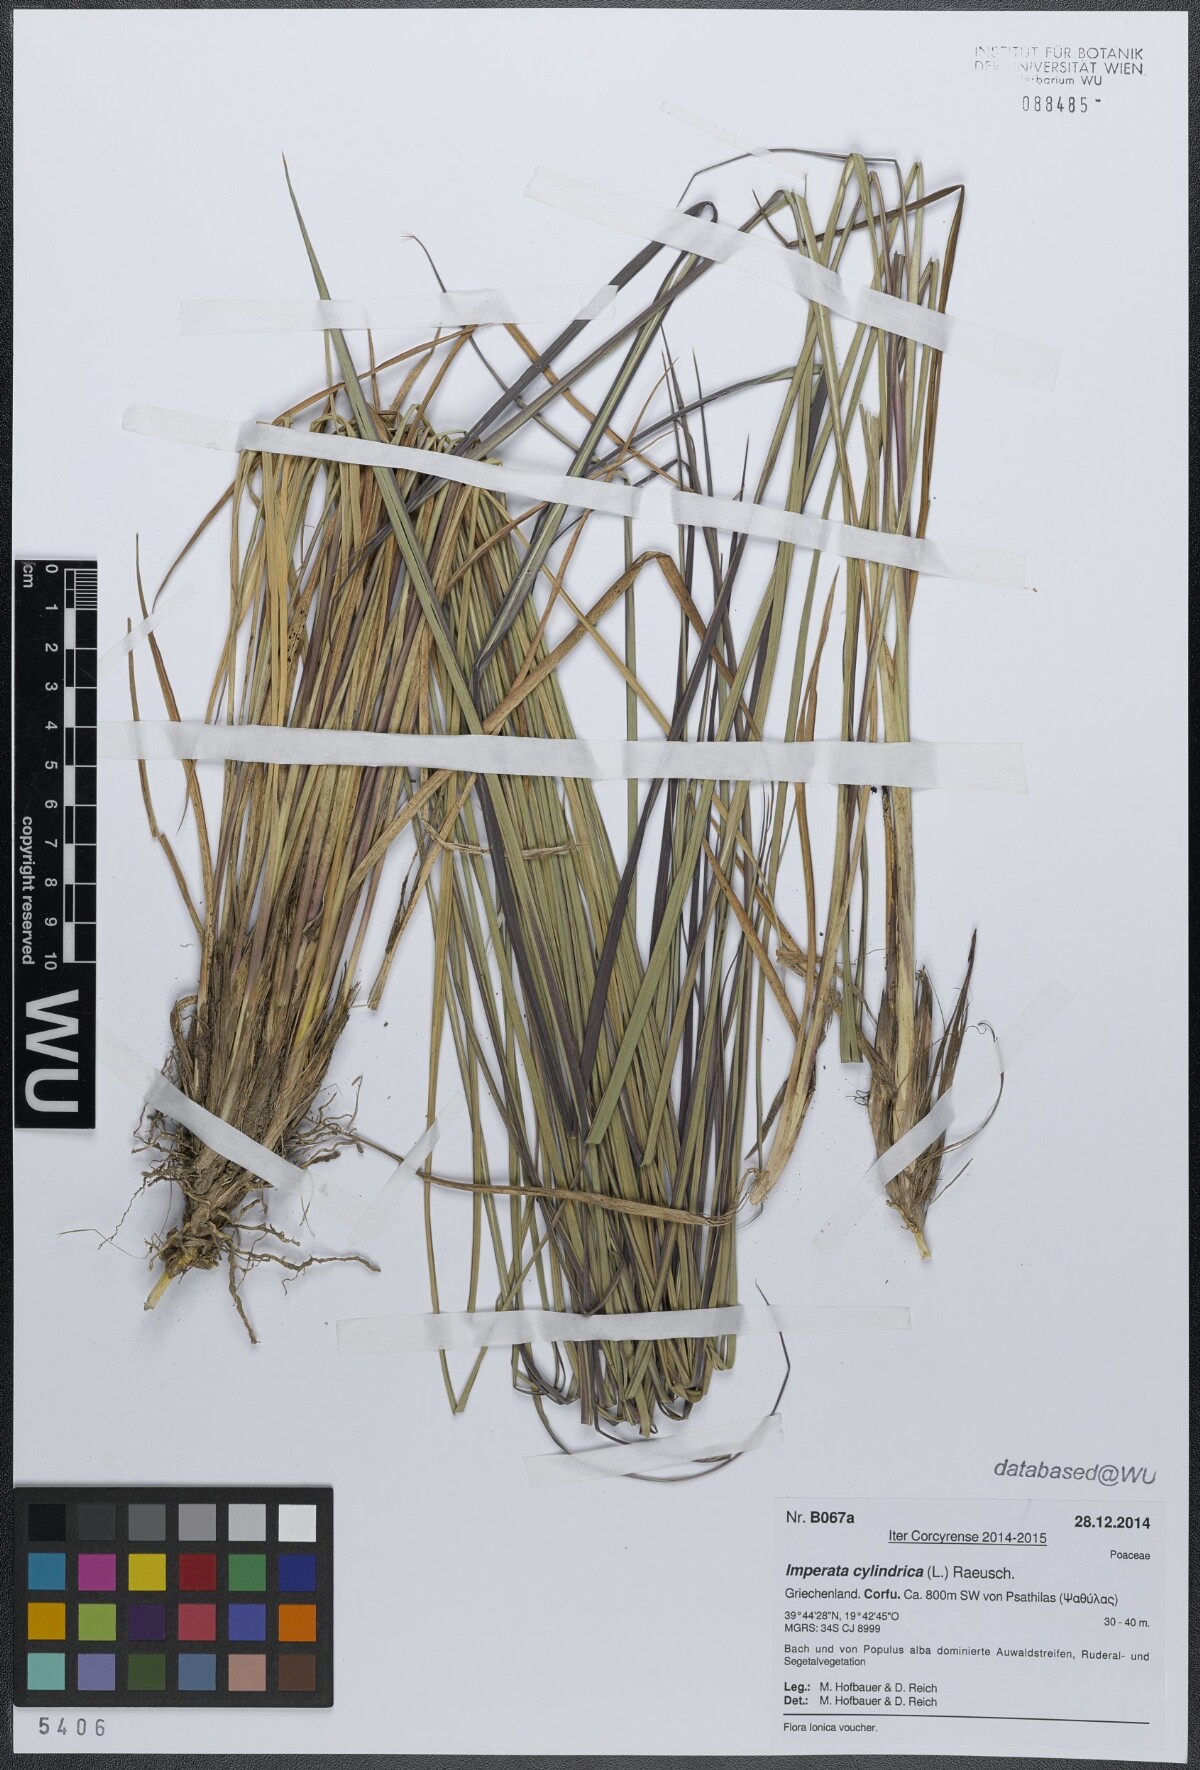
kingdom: Plantae
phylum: Tracheophyta
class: Liliopsida
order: Poales
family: Poaceae
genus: Imperata
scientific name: Imperata cylindrica
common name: Cogongrass
